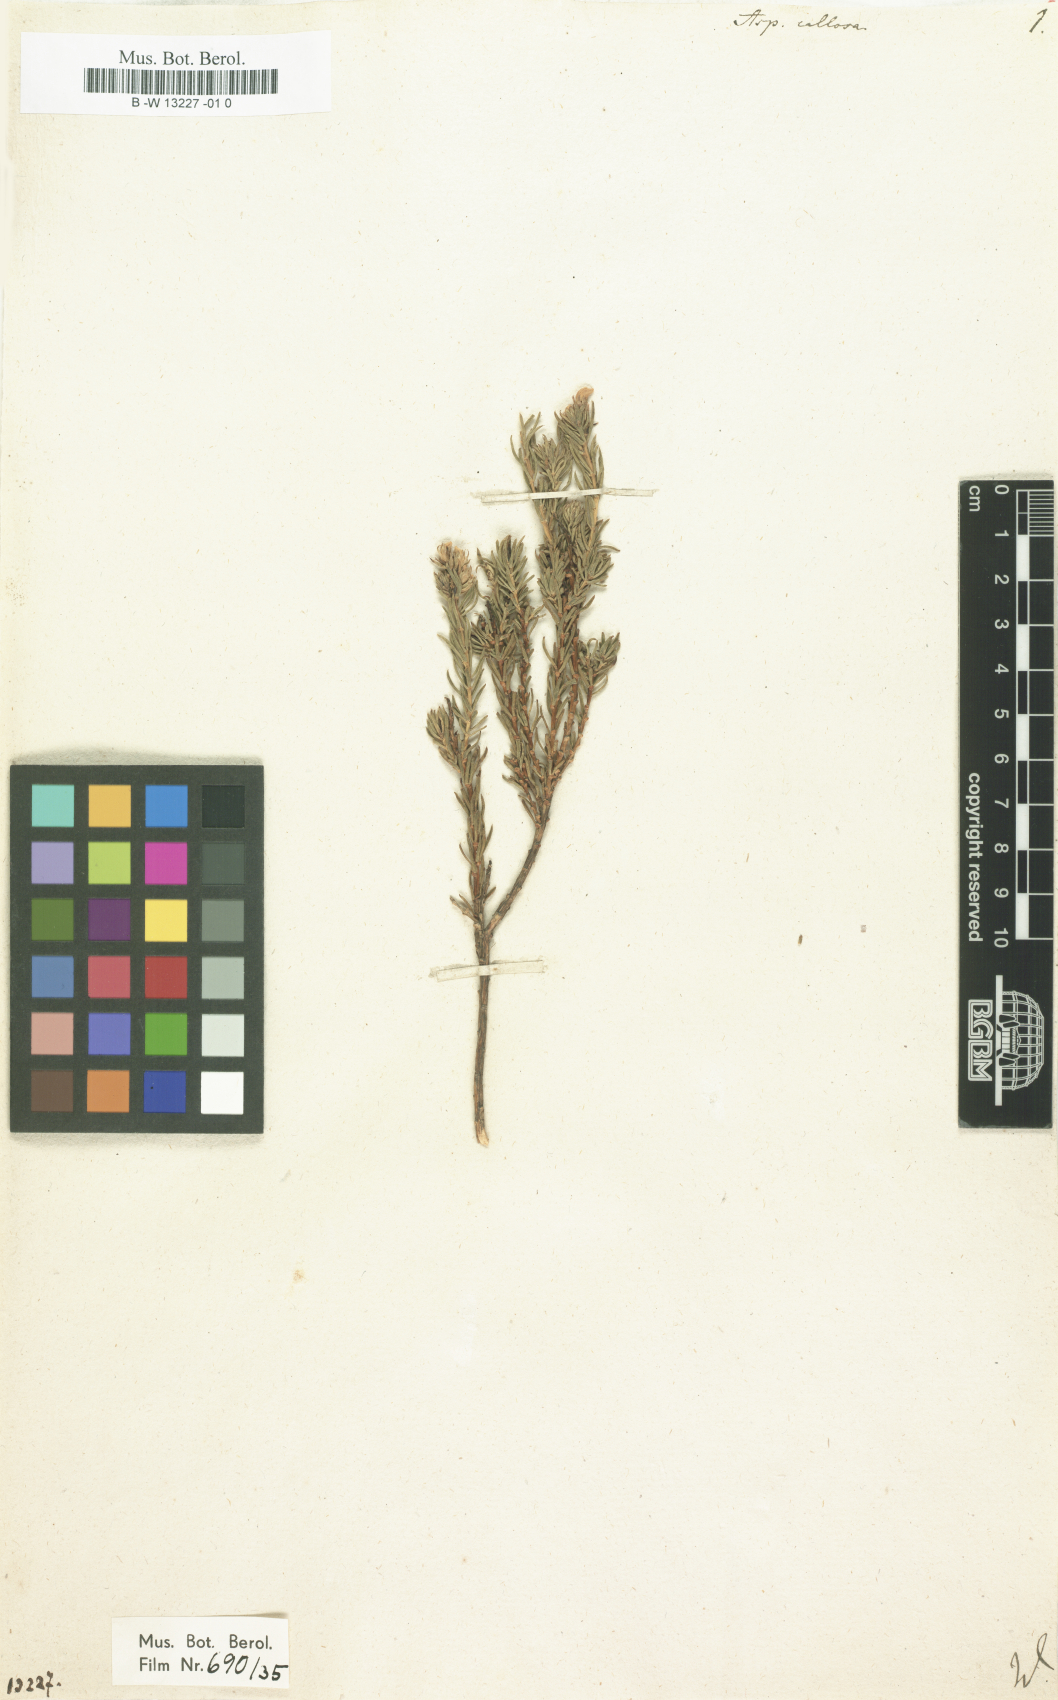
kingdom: Plantae
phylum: Tracheophyta
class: Magnoliopsida
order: Fabales
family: Fabaceae
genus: Aspalathus
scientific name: Aspalathus callosa
